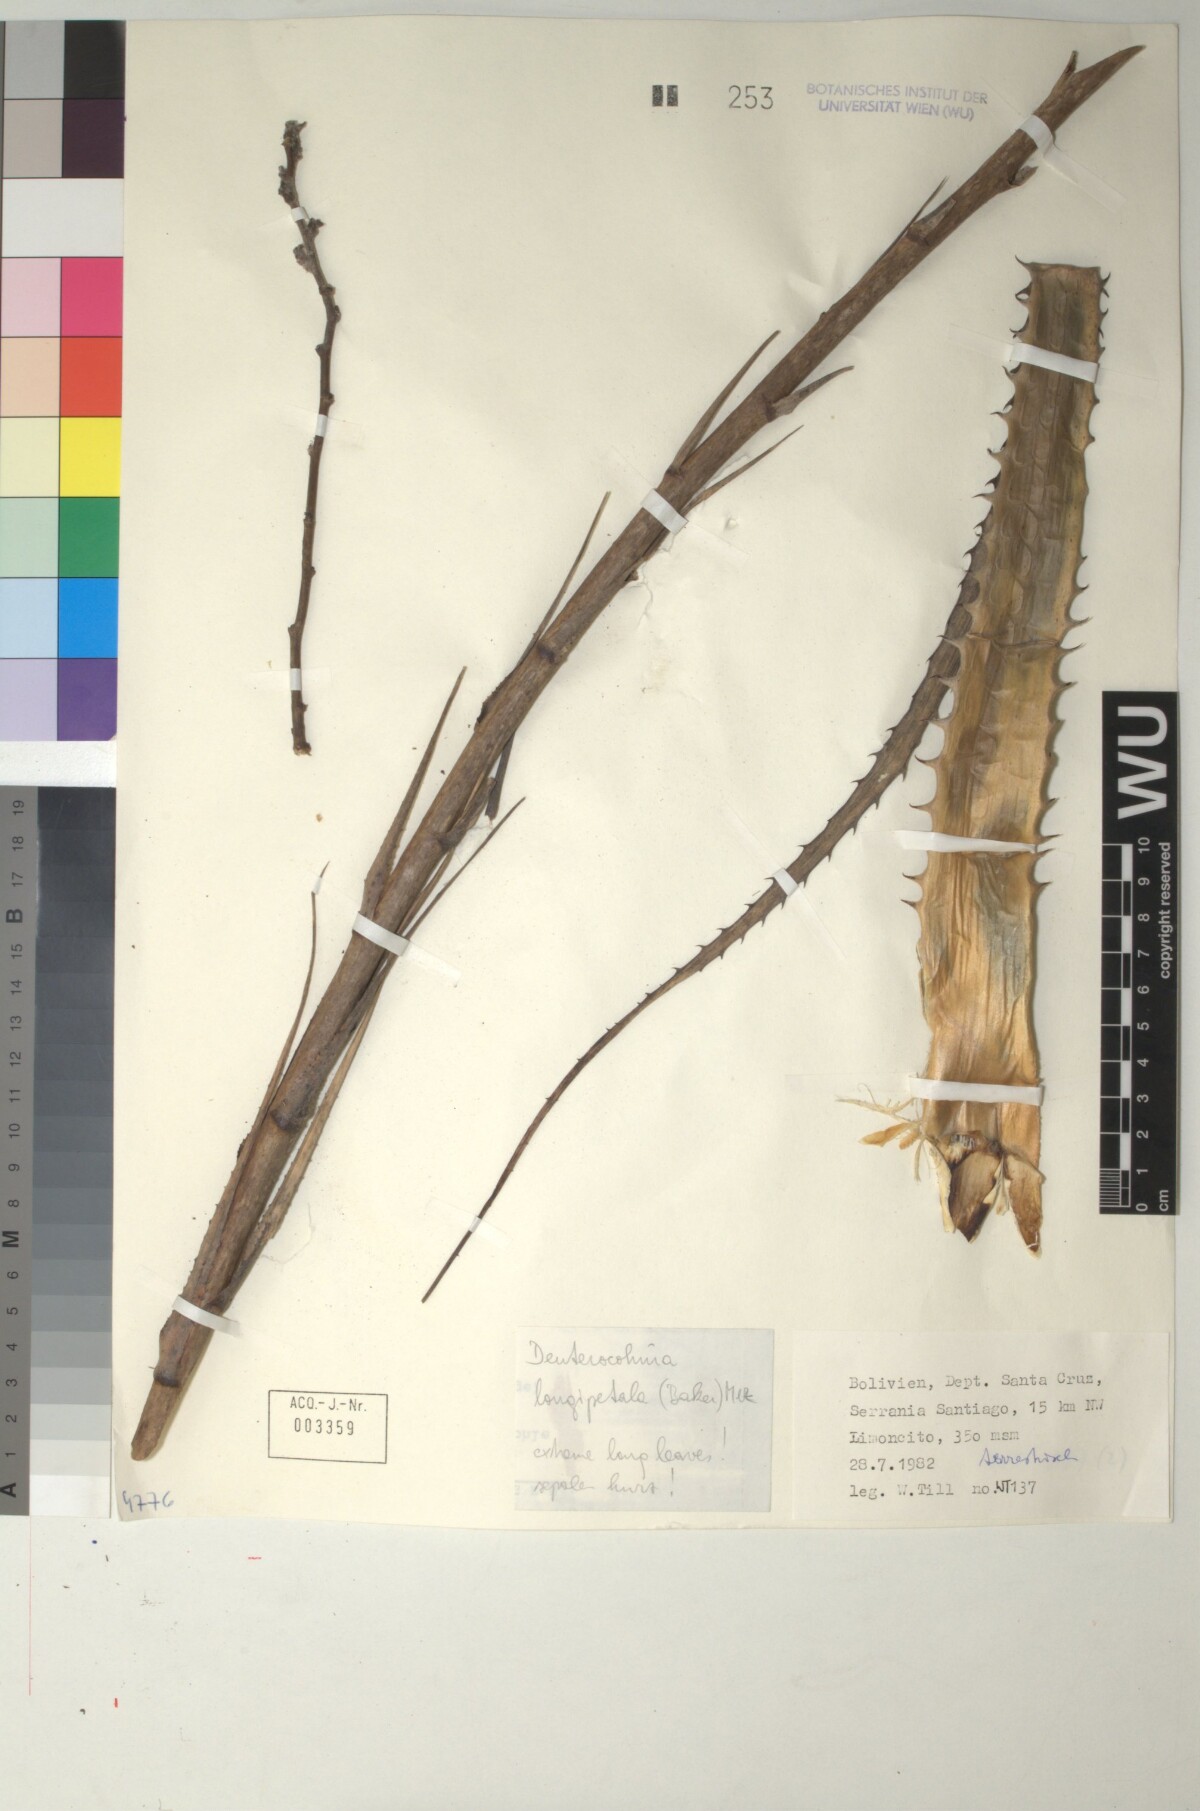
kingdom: Plantae
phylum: Tracheophyta
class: Liliopsida
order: Poales
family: Bromeliaceae
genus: Deuterocohnia
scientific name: Deuterocohnia longipetala
